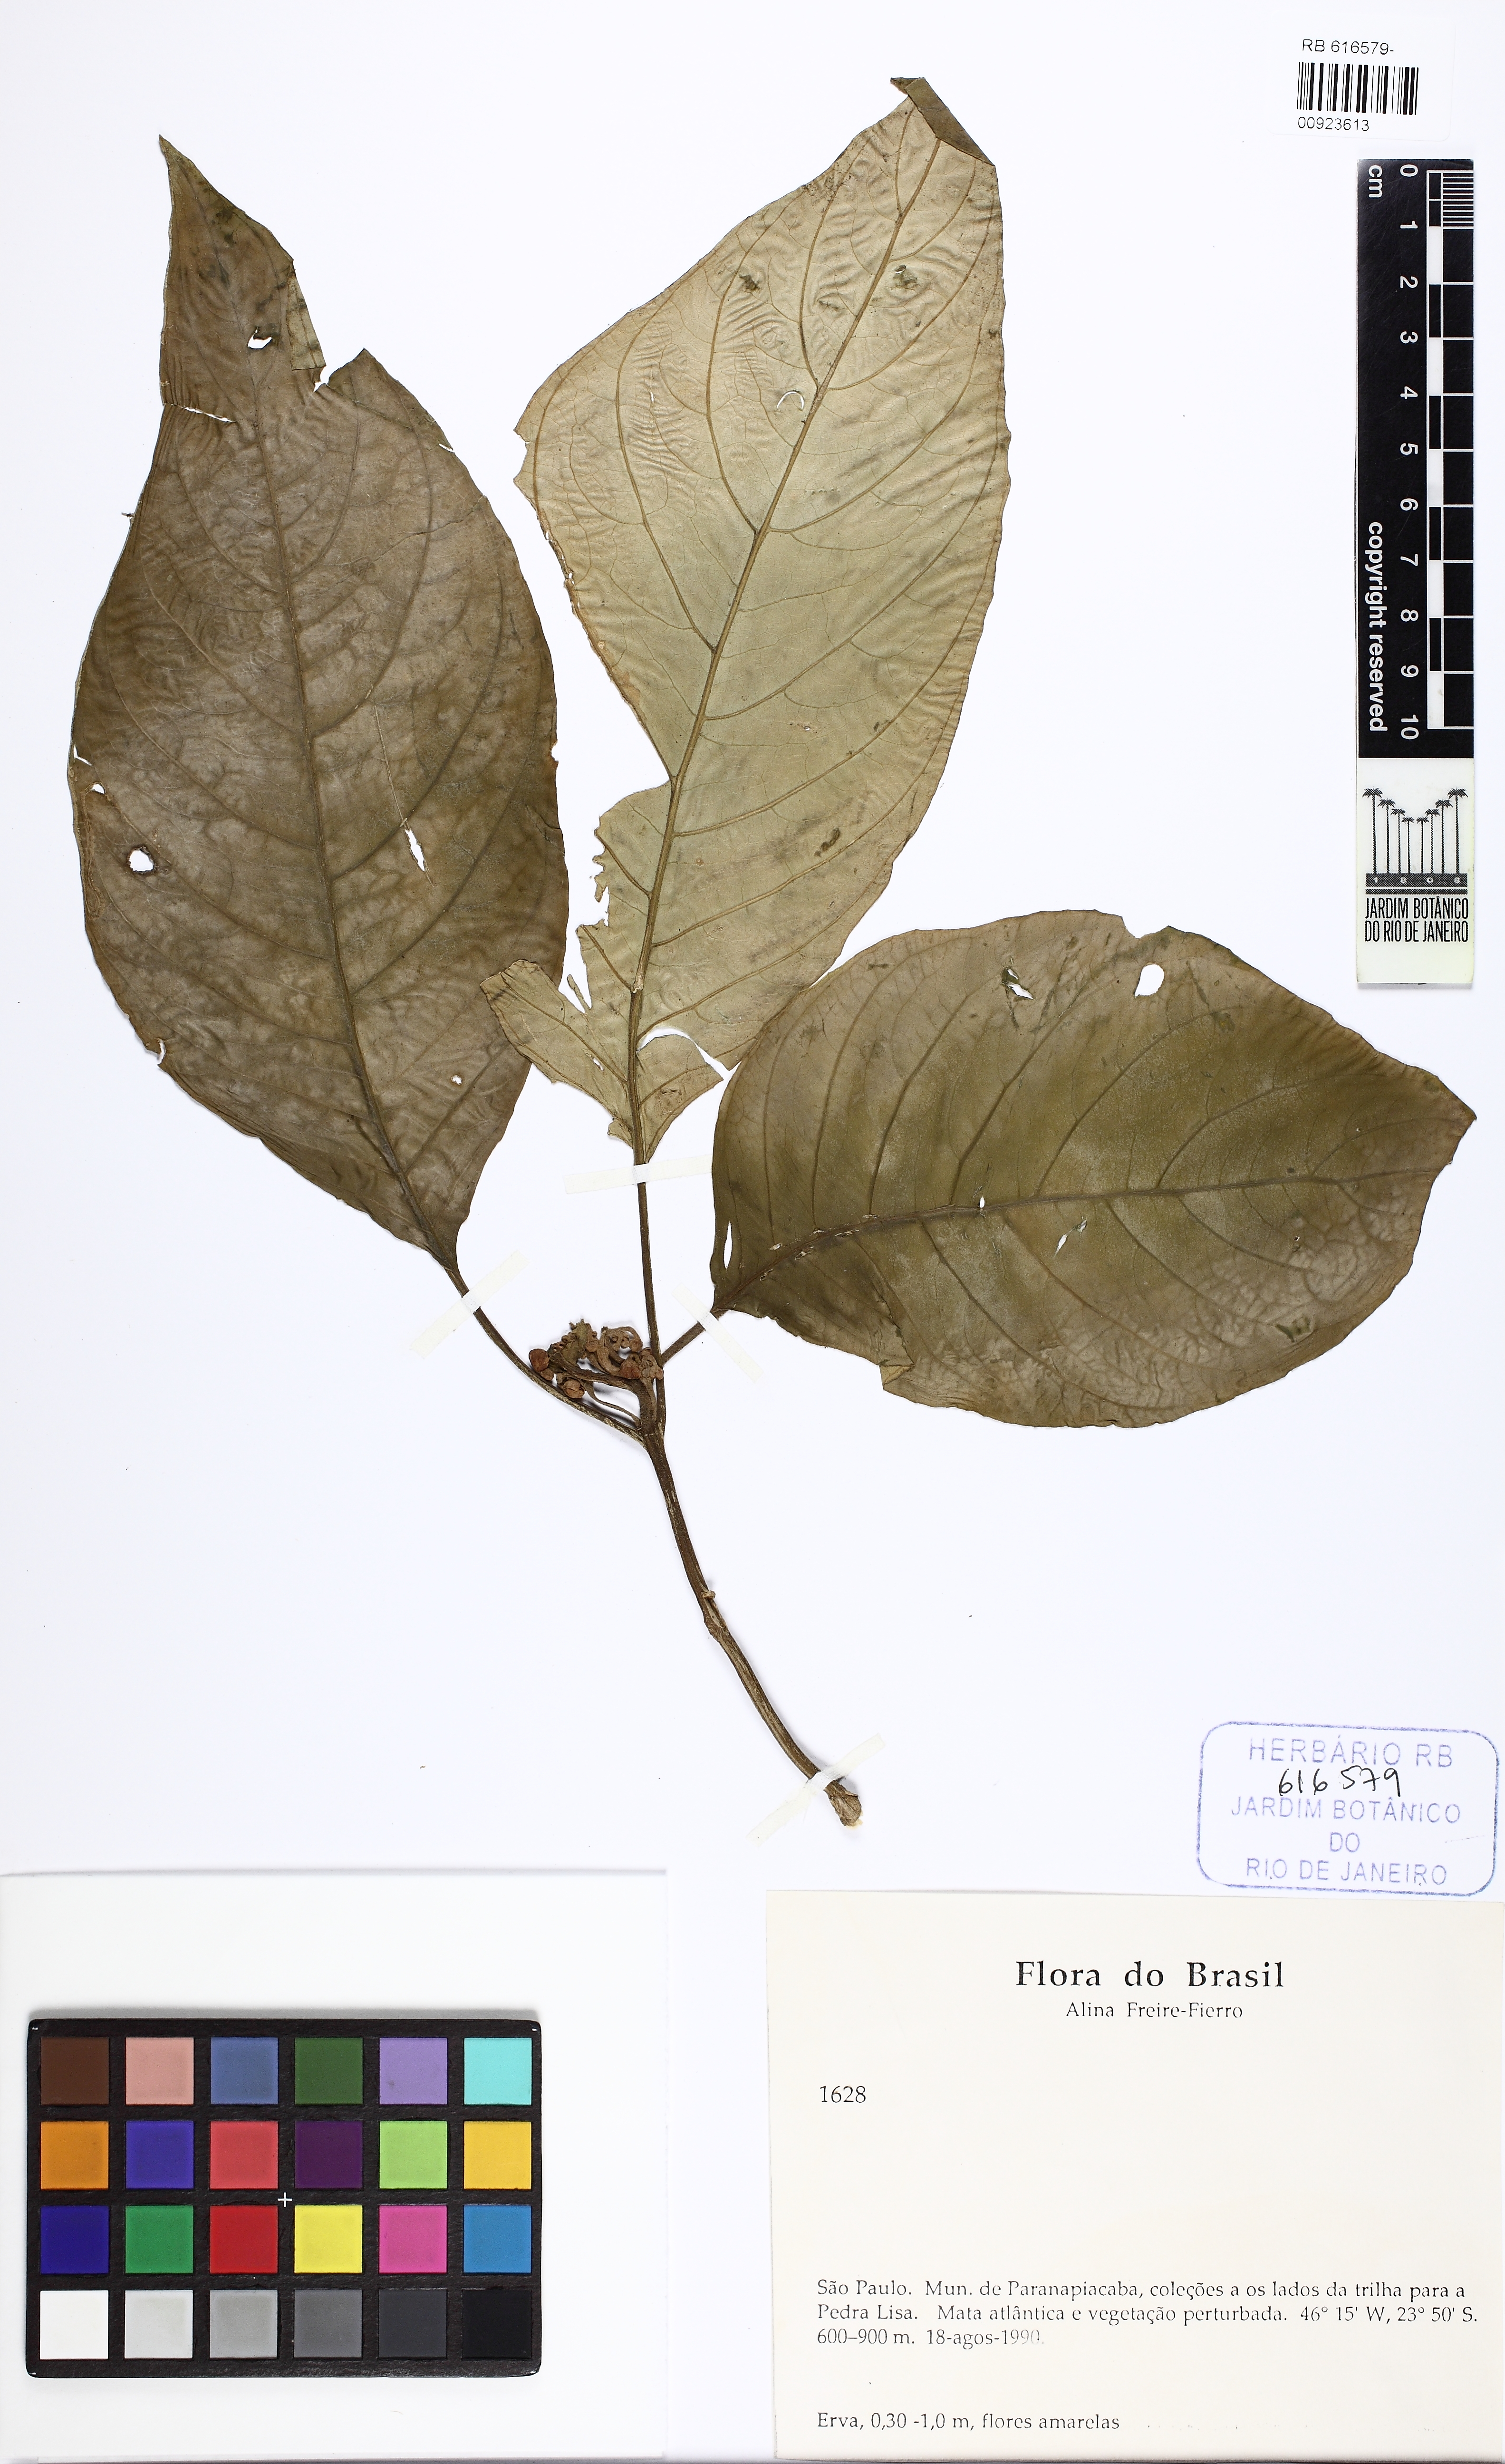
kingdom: Plantae
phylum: Tracheophyta
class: Magnoliopsida
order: Lamiales
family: Gesneriaceae
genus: Besleria
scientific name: Besleria selloana
